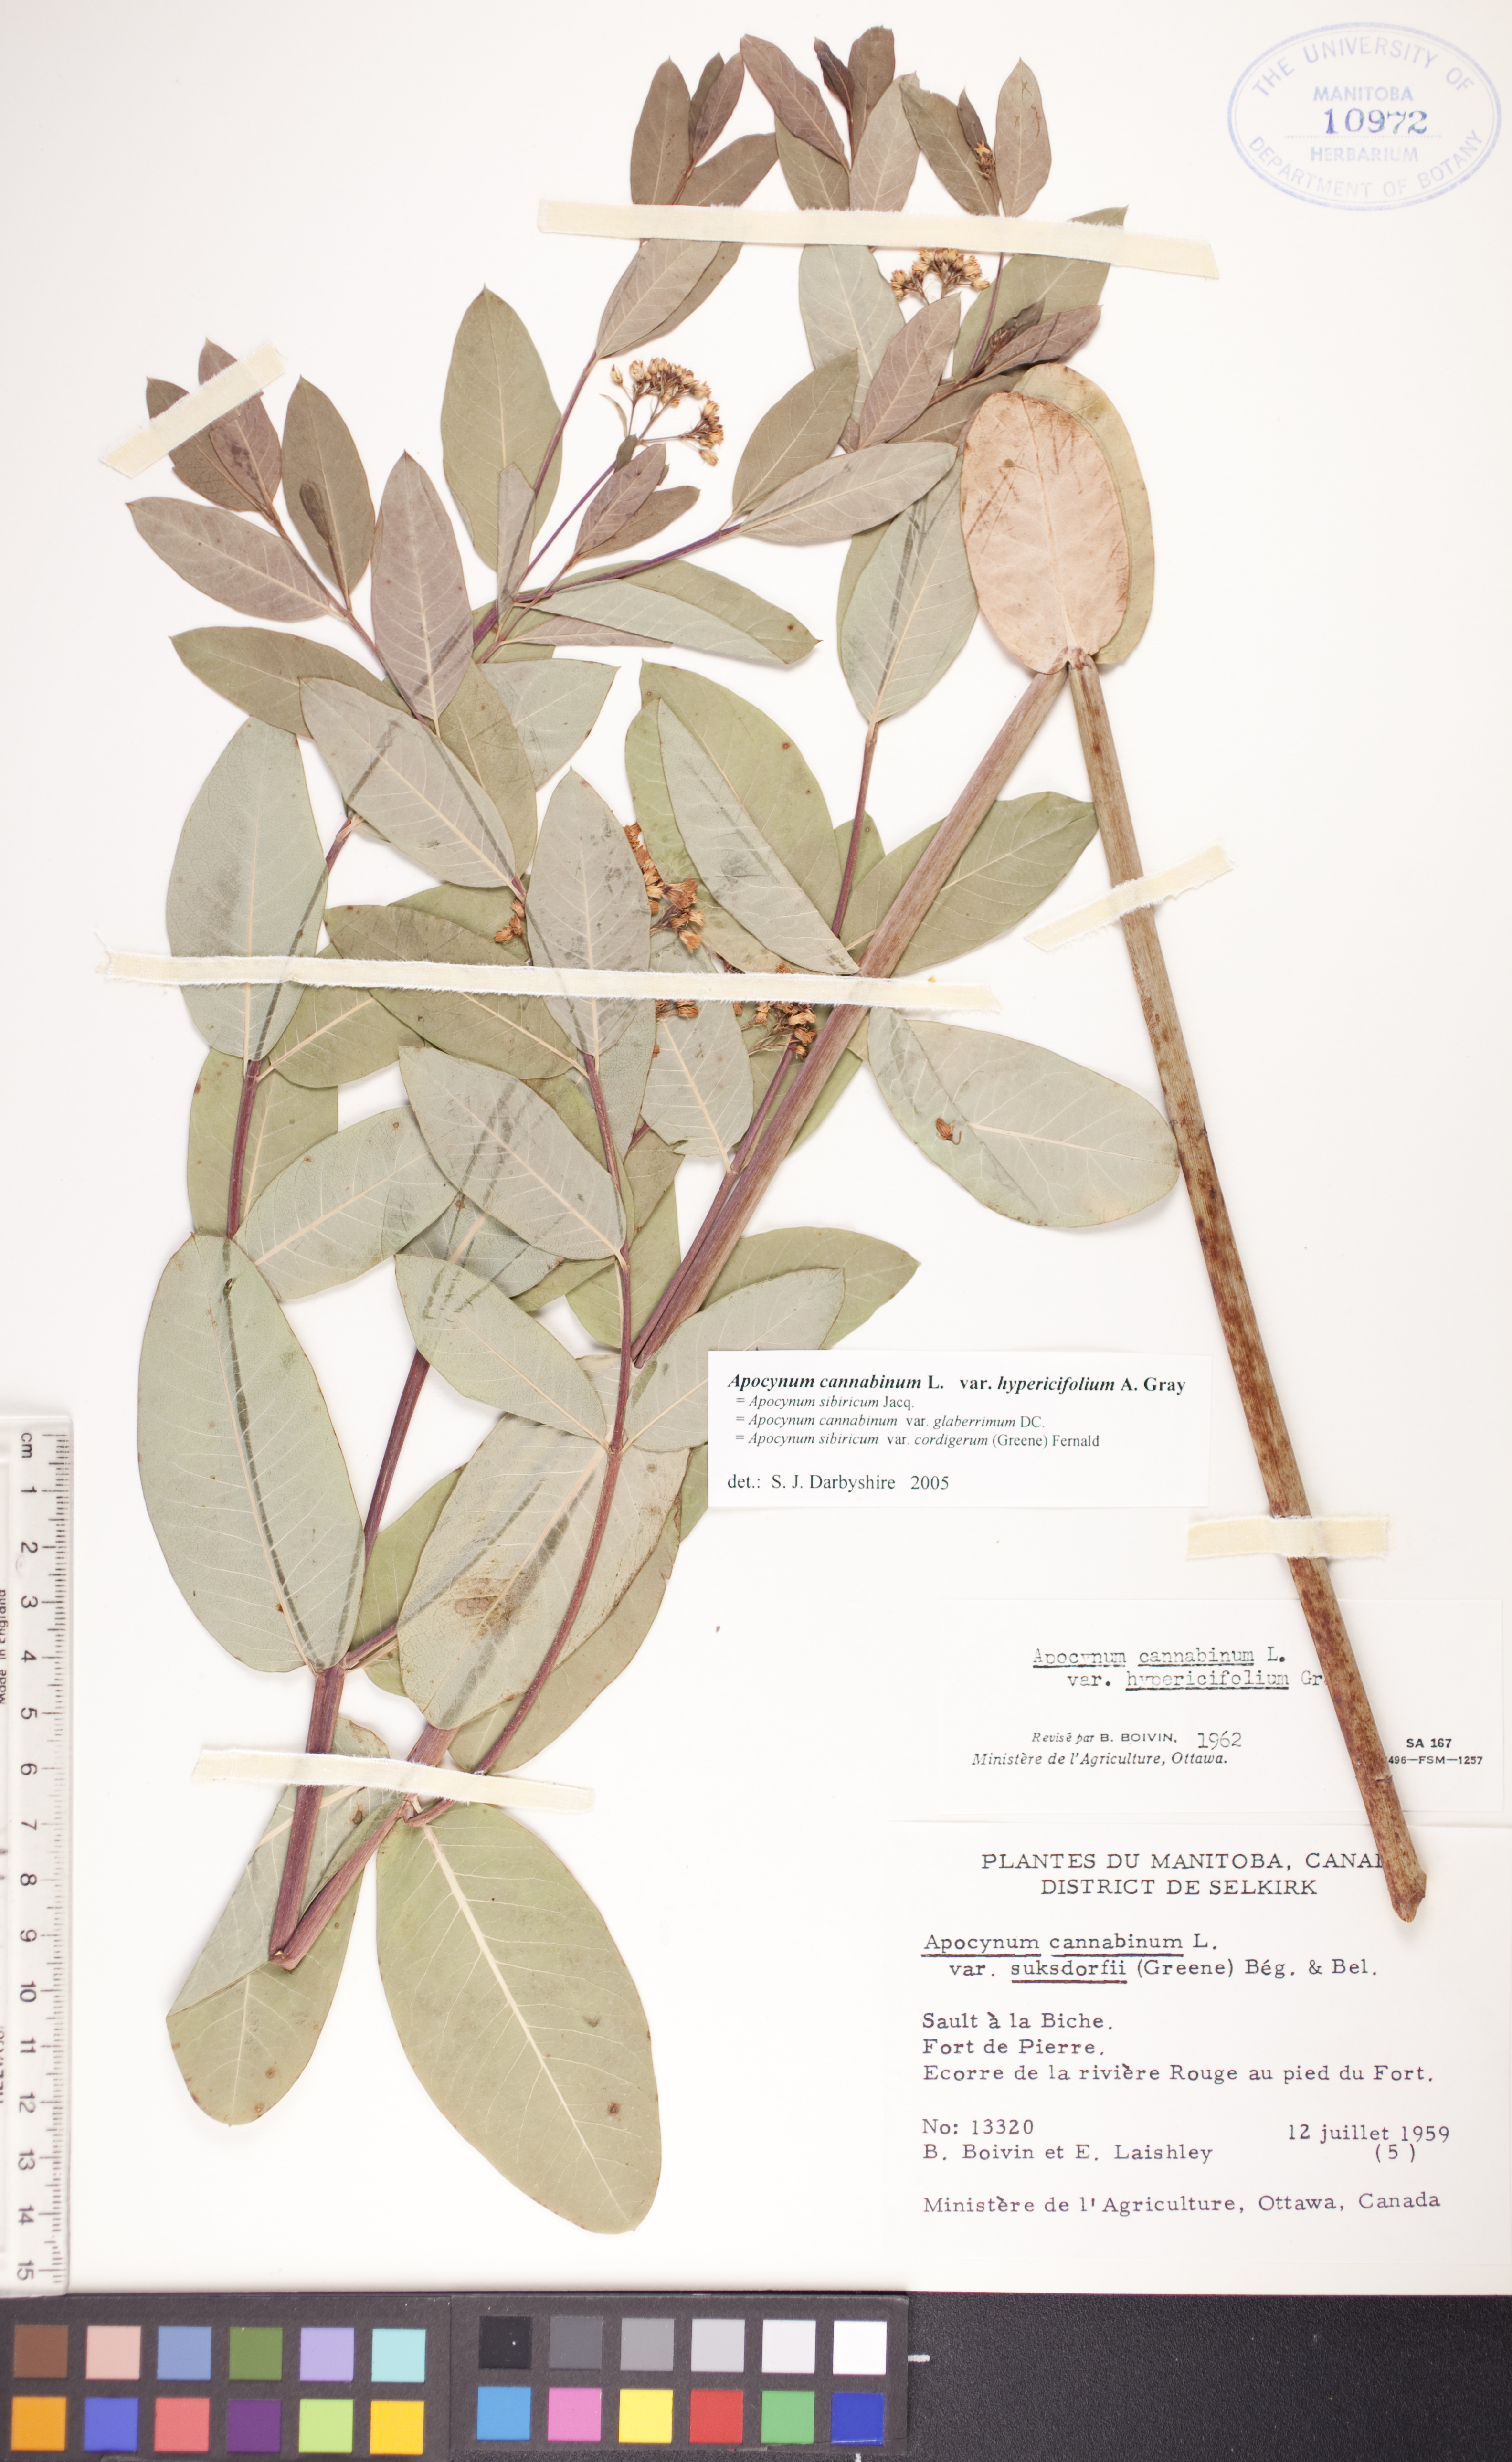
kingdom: Plantae
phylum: Tracheophyta
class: Magnoliopsida
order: Gentianales
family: Apocynaceae
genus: Apocynum
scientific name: Apocynum cannabinum
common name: Hemp dogbane
